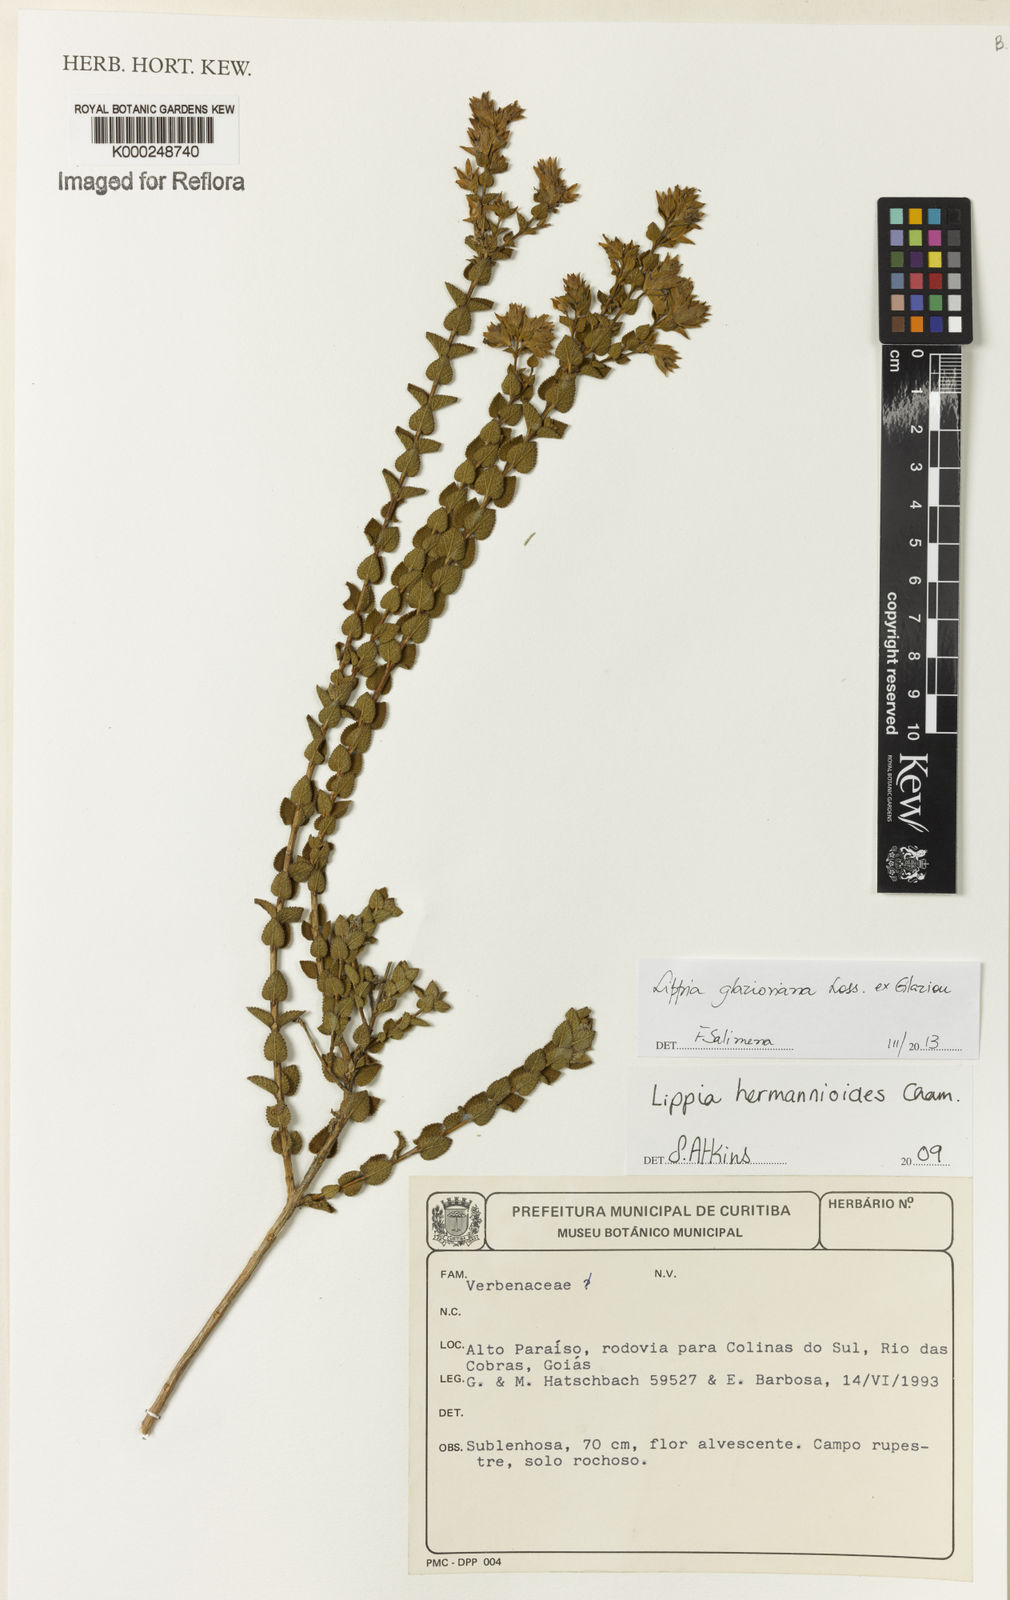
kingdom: Plantae
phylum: Tracheophyta
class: Magnoliopsida
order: Lamiales
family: Verbenaceae
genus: Lippia
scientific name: Lippia hermannioides
